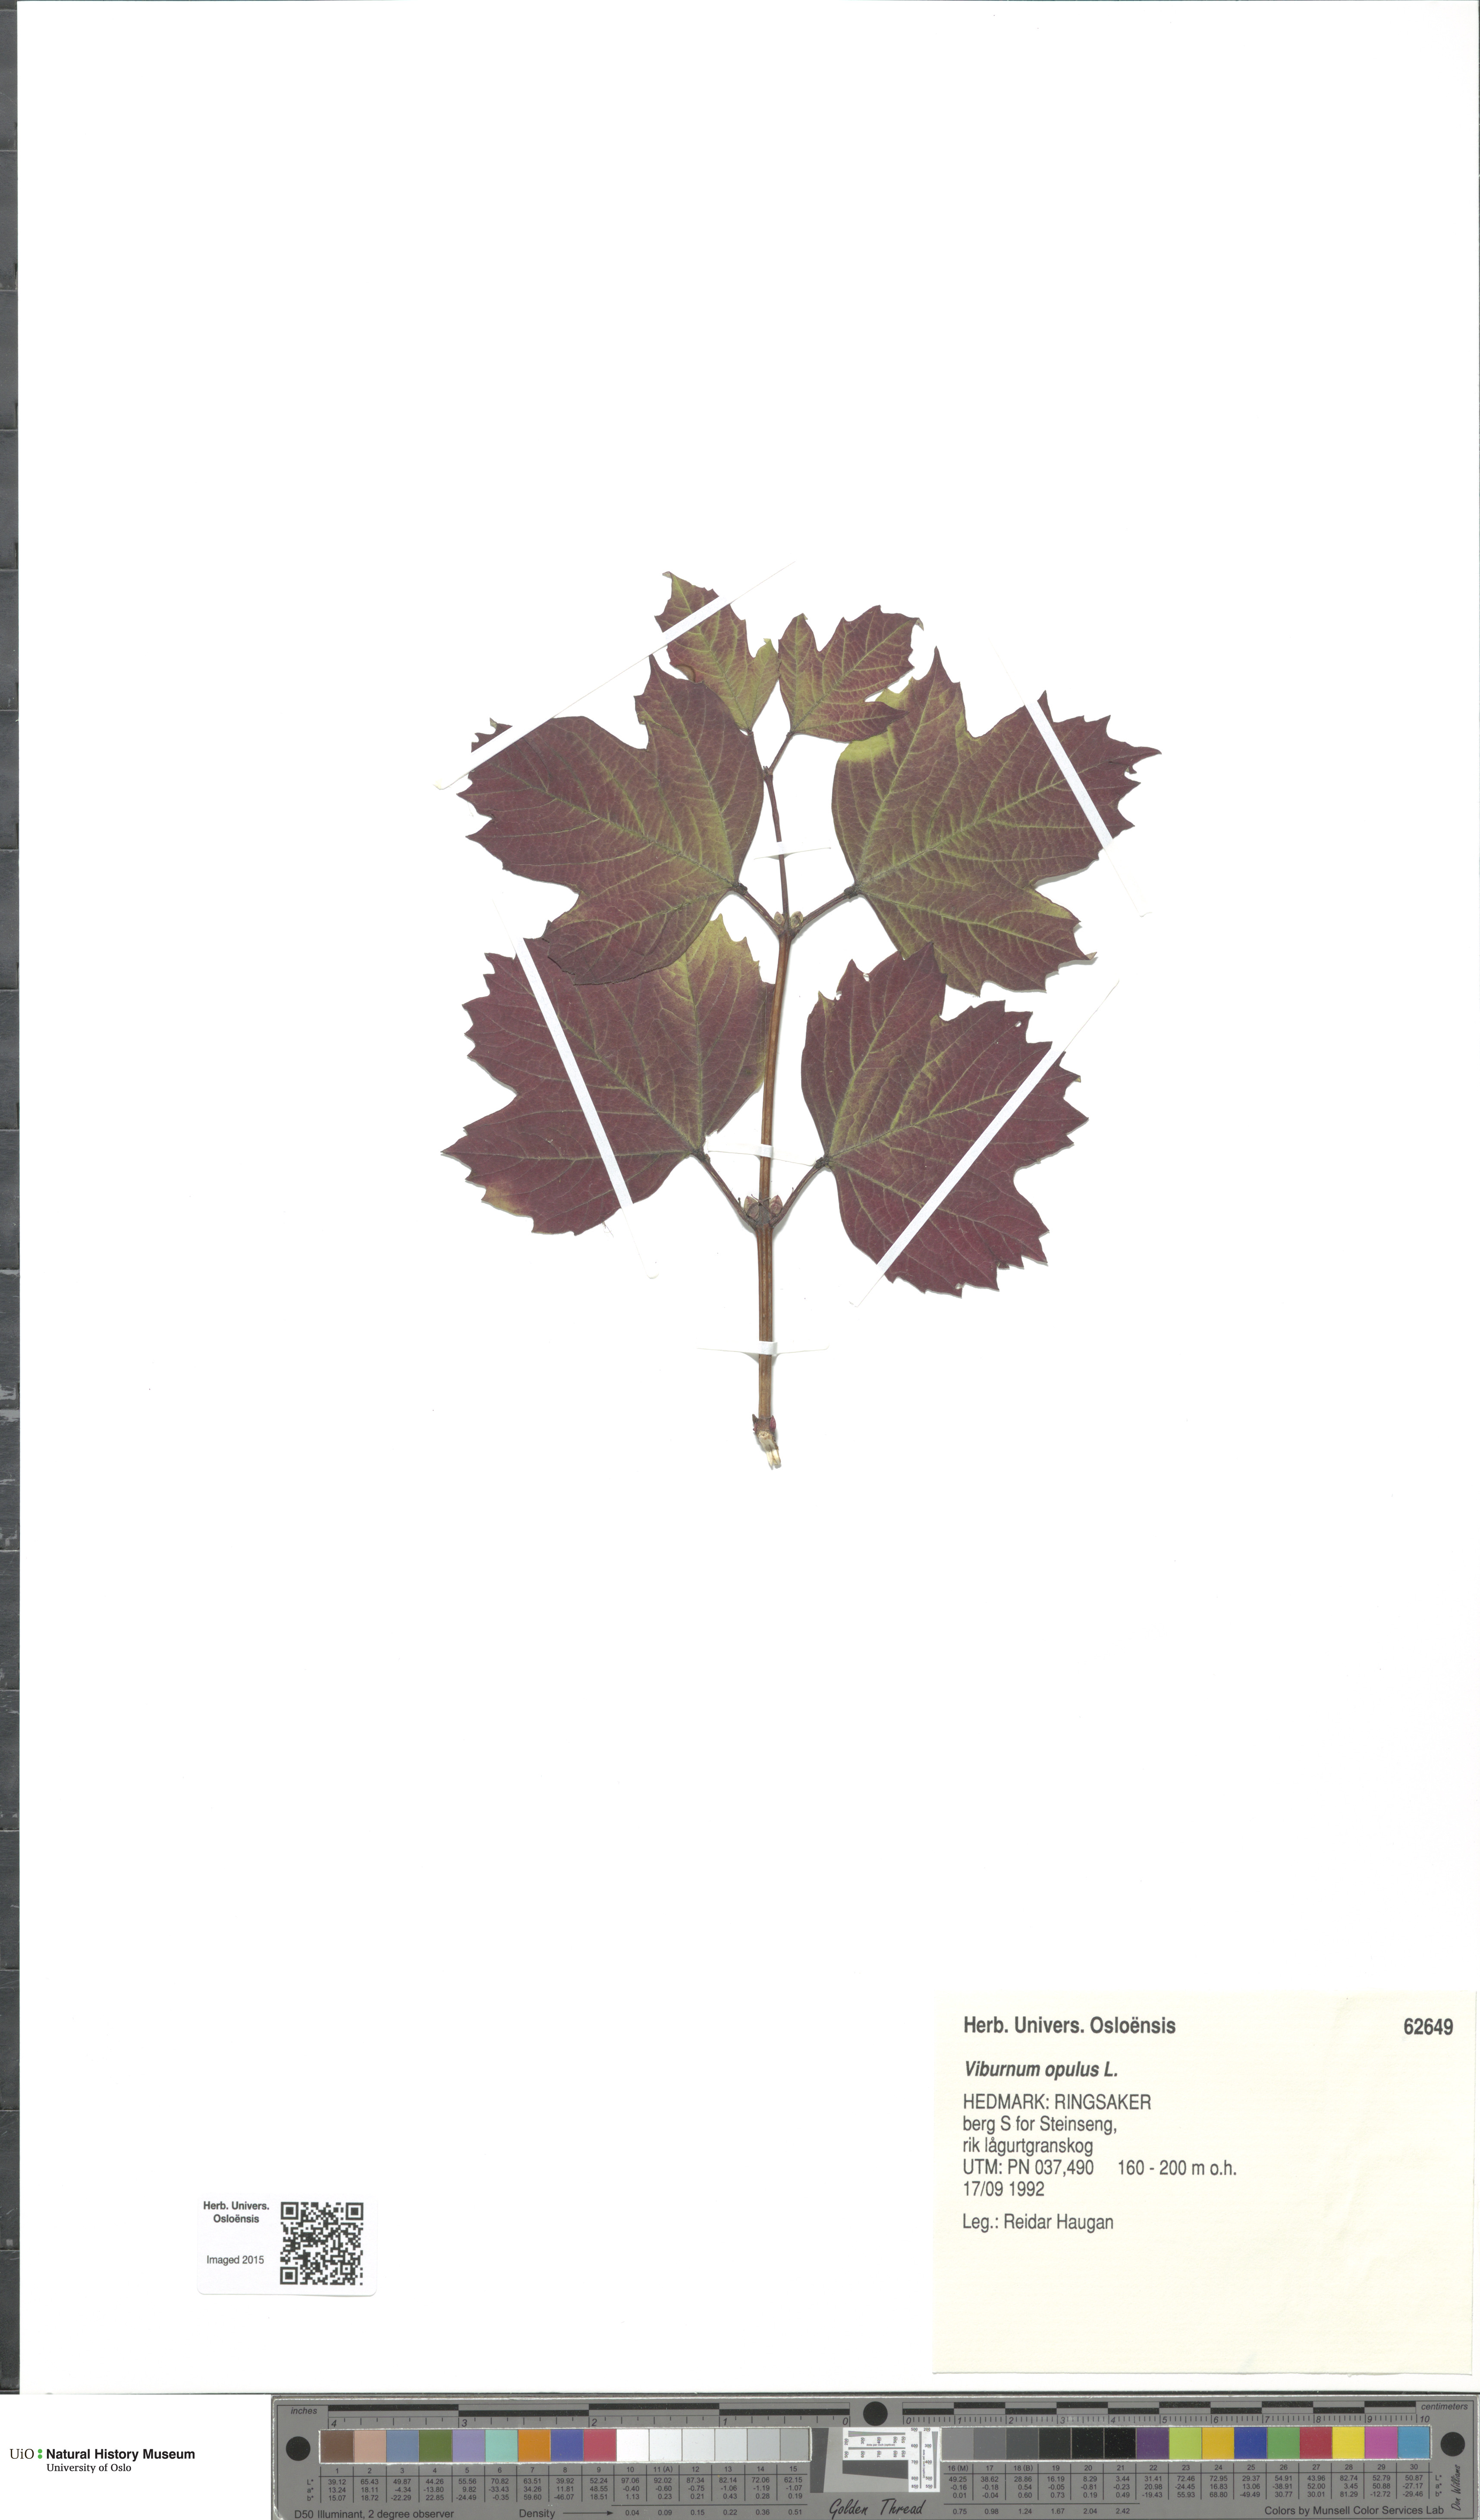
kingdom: Plantae
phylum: Tracheophyta
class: Magnoliopsida
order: Dipsacales
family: Viburnaceae
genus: Viburnum
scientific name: Viburnum opulus
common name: Guelder-rose
